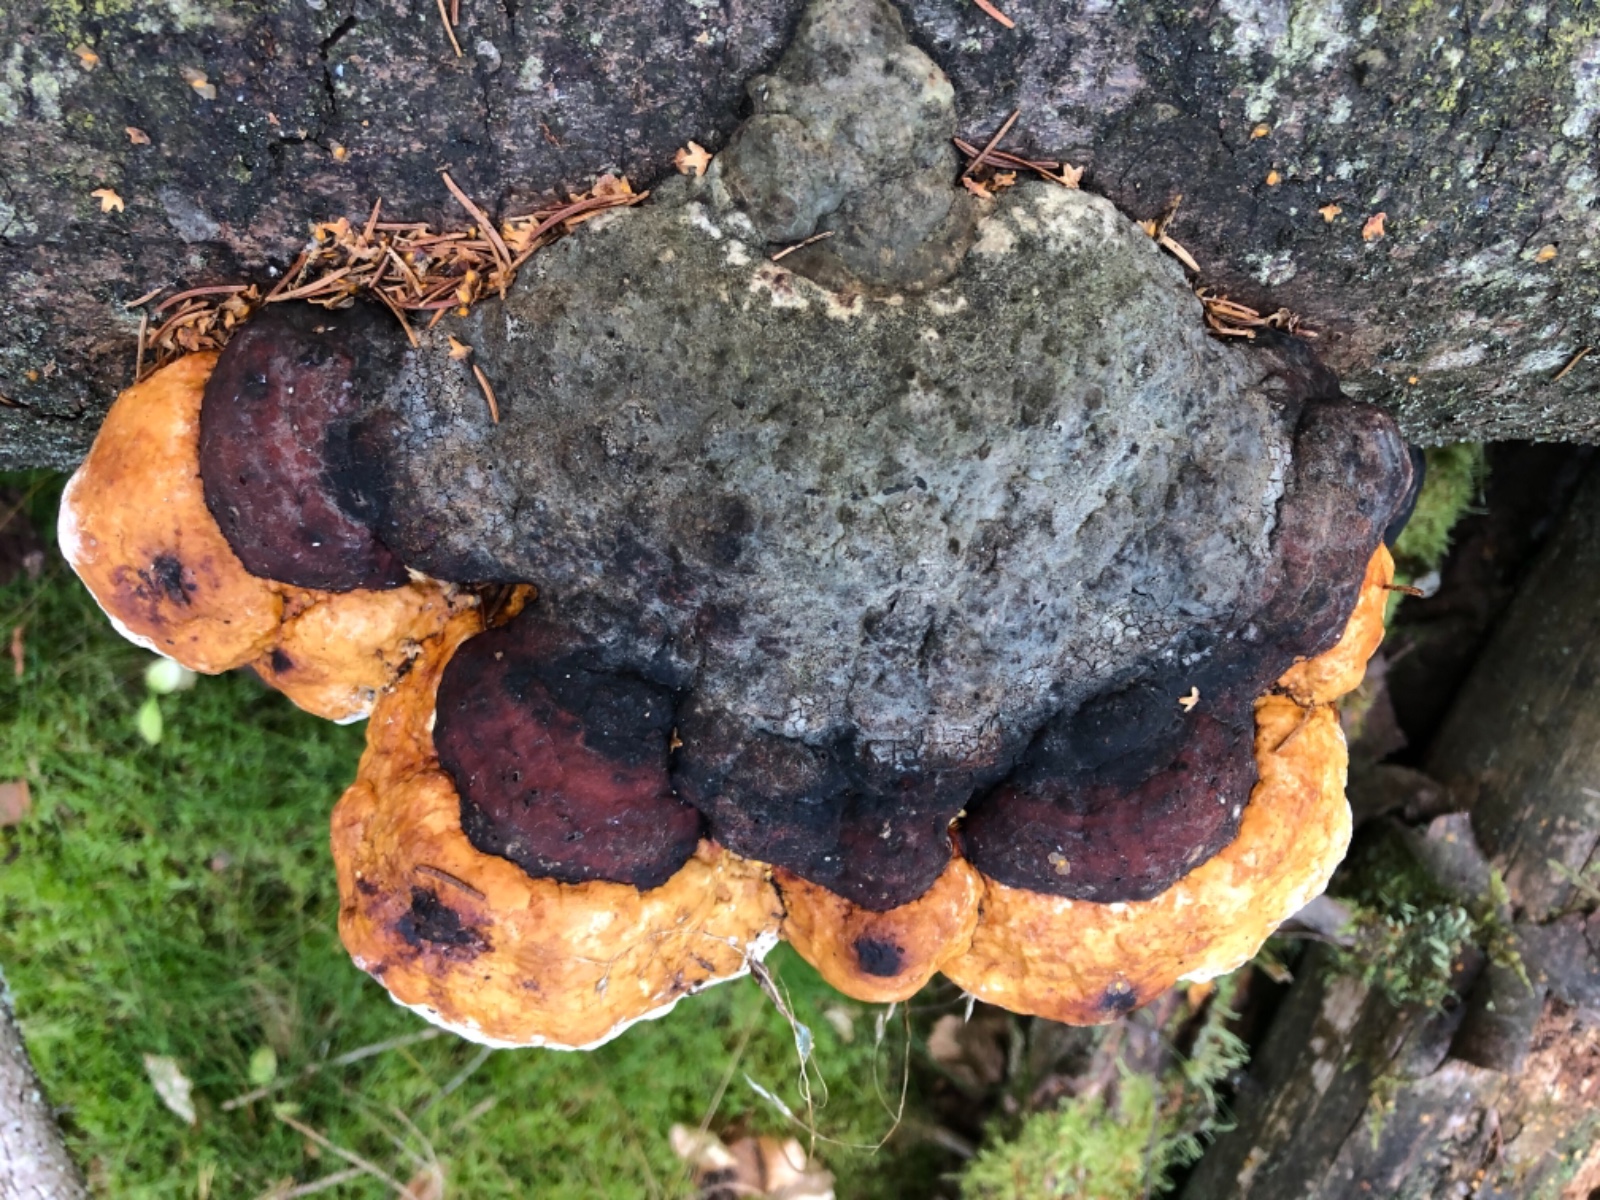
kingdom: Fungi
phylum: Basidiomycota
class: Agaricomycetes
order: Polyporales
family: Fomitopsidaceae
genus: Fomitopsis
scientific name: Fomitopsis pinicola
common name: randbæltet hovporesvamp
